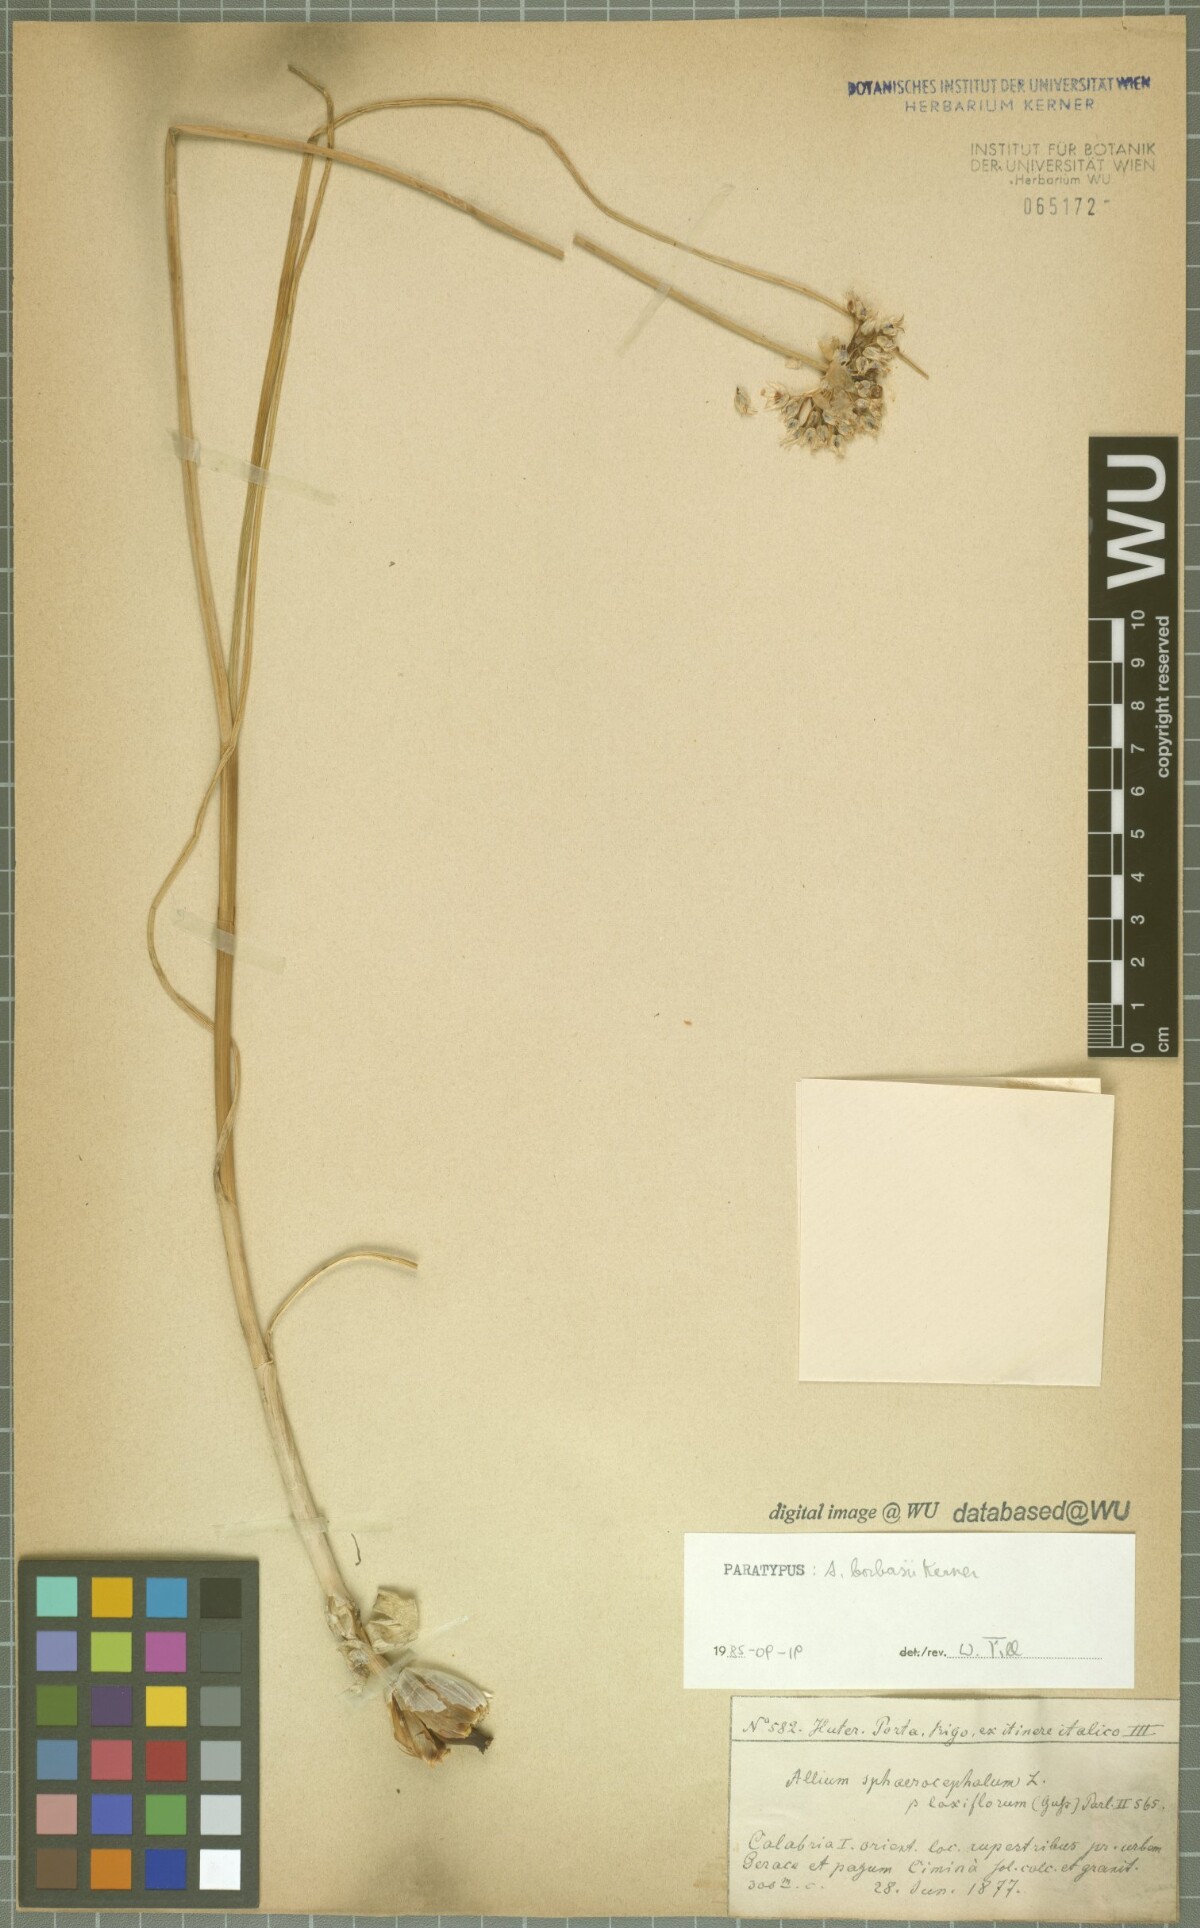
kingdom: Plantae
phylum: Tracheophyta
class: Liliopsida
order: Asparagales
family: Amaryllidaceae
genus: Allium
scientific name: Allium sphaerocephalon
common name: Round-headed leek
